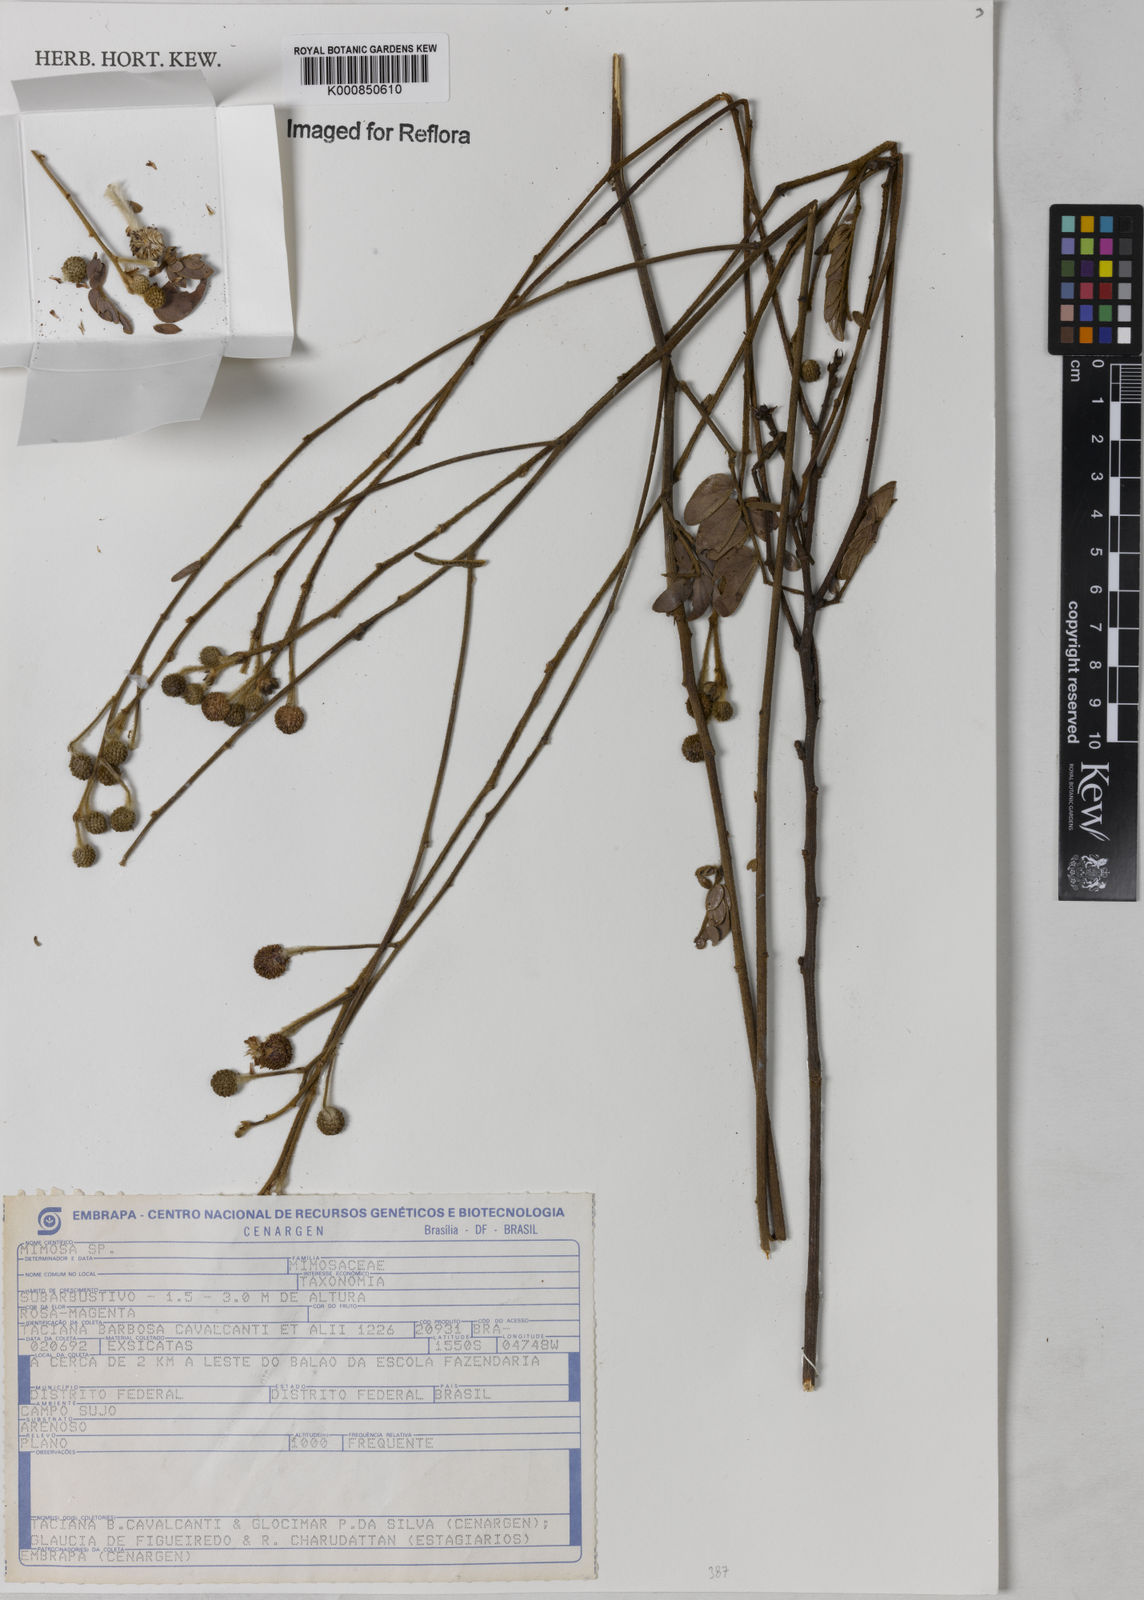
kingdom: Plantae
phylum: Tracheophyta
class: Magnoliopsida
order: Fabales
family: Fabaceae
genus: Mimosa
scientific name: Mimosa
